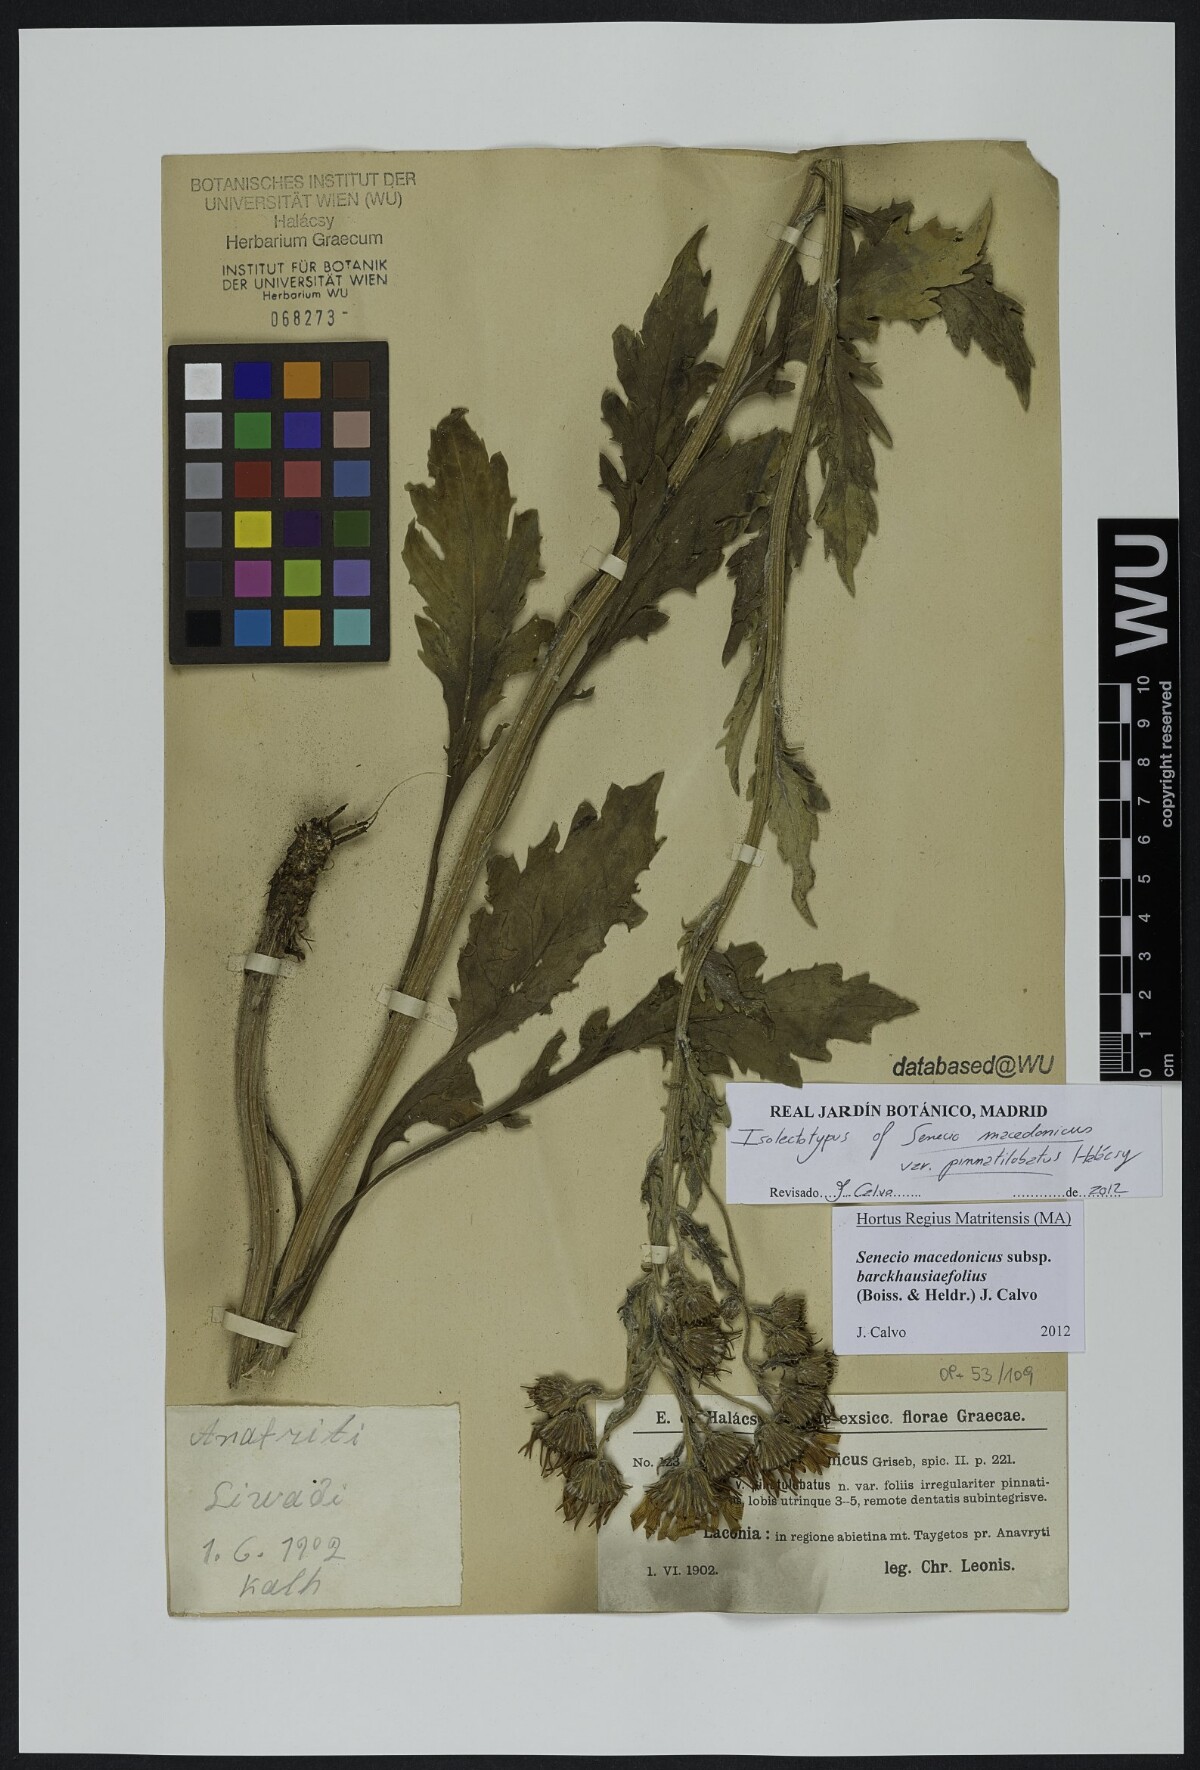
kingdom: Plantae
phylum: Tracheophyta
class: Magnoliopsida
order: Asterales
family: Asteraceae
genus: Senecio
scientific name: Senecio macedonicus
